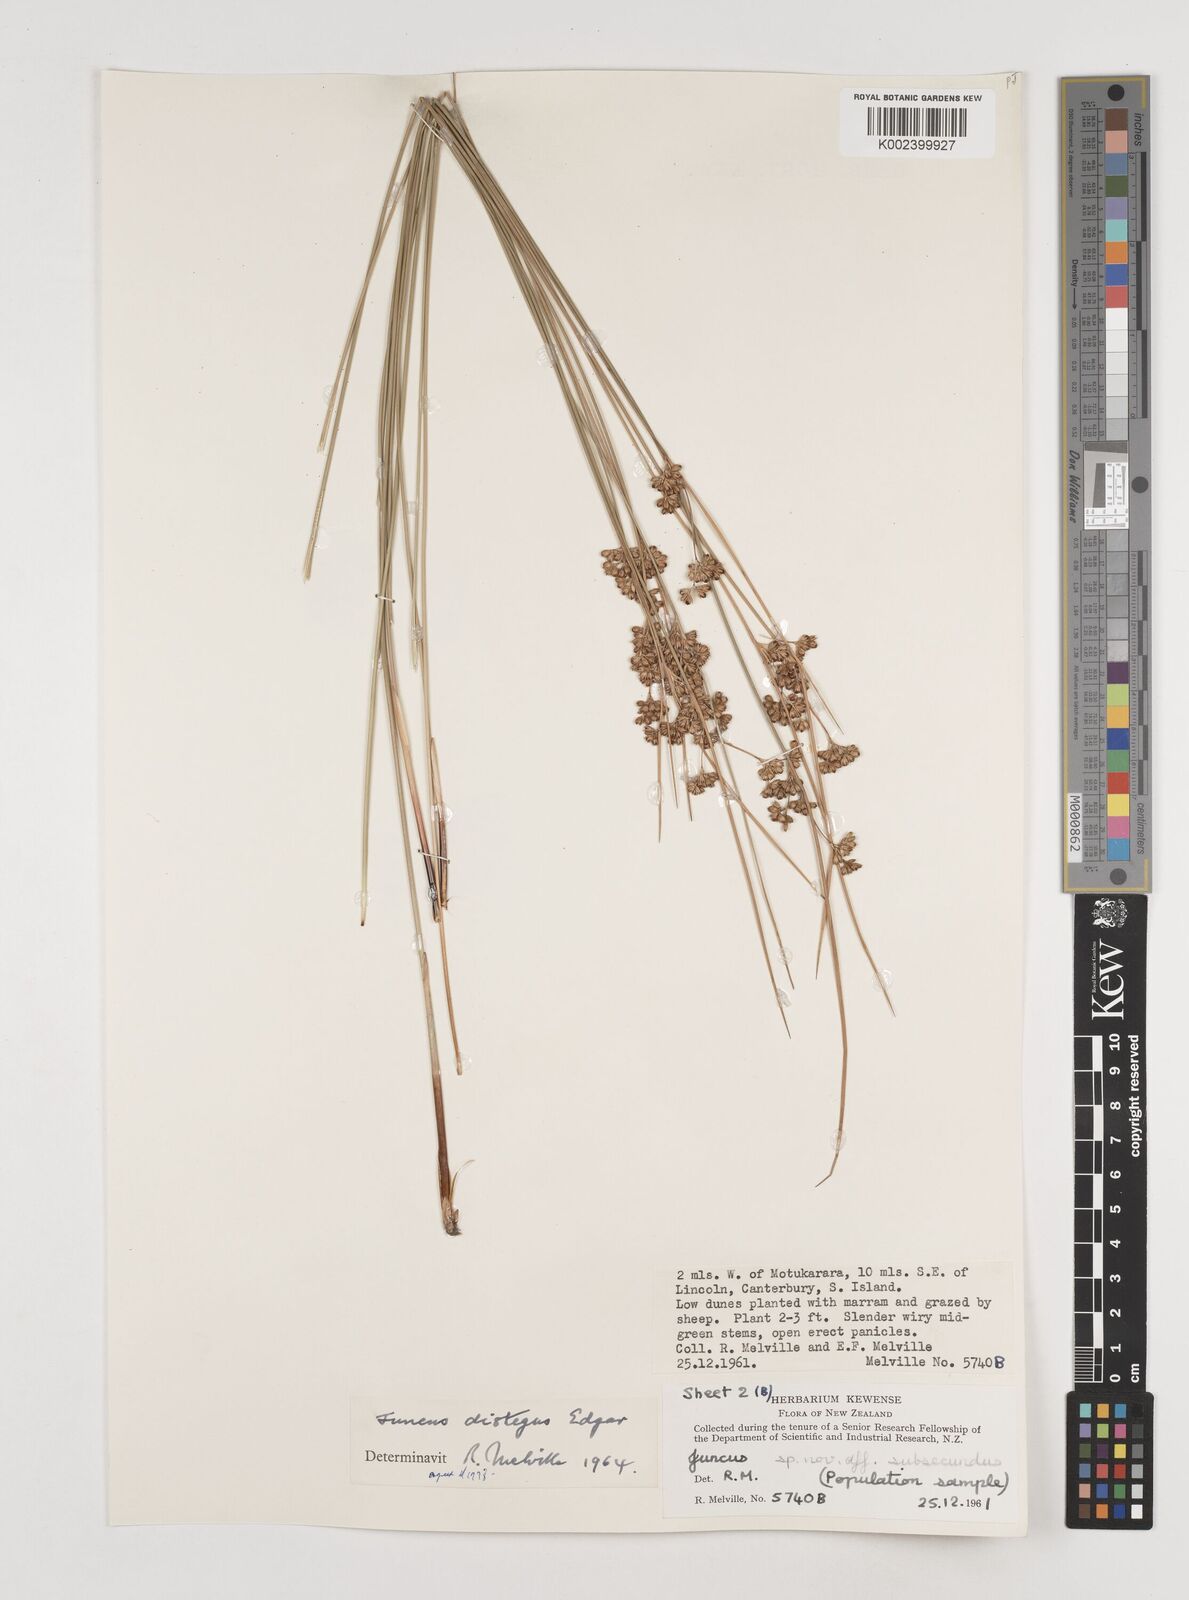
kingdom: Plantae
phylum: Tracheophyta
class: Liliopsida
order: Poales
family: Juncaceae
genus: Juncus
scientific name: Juncus distegus
